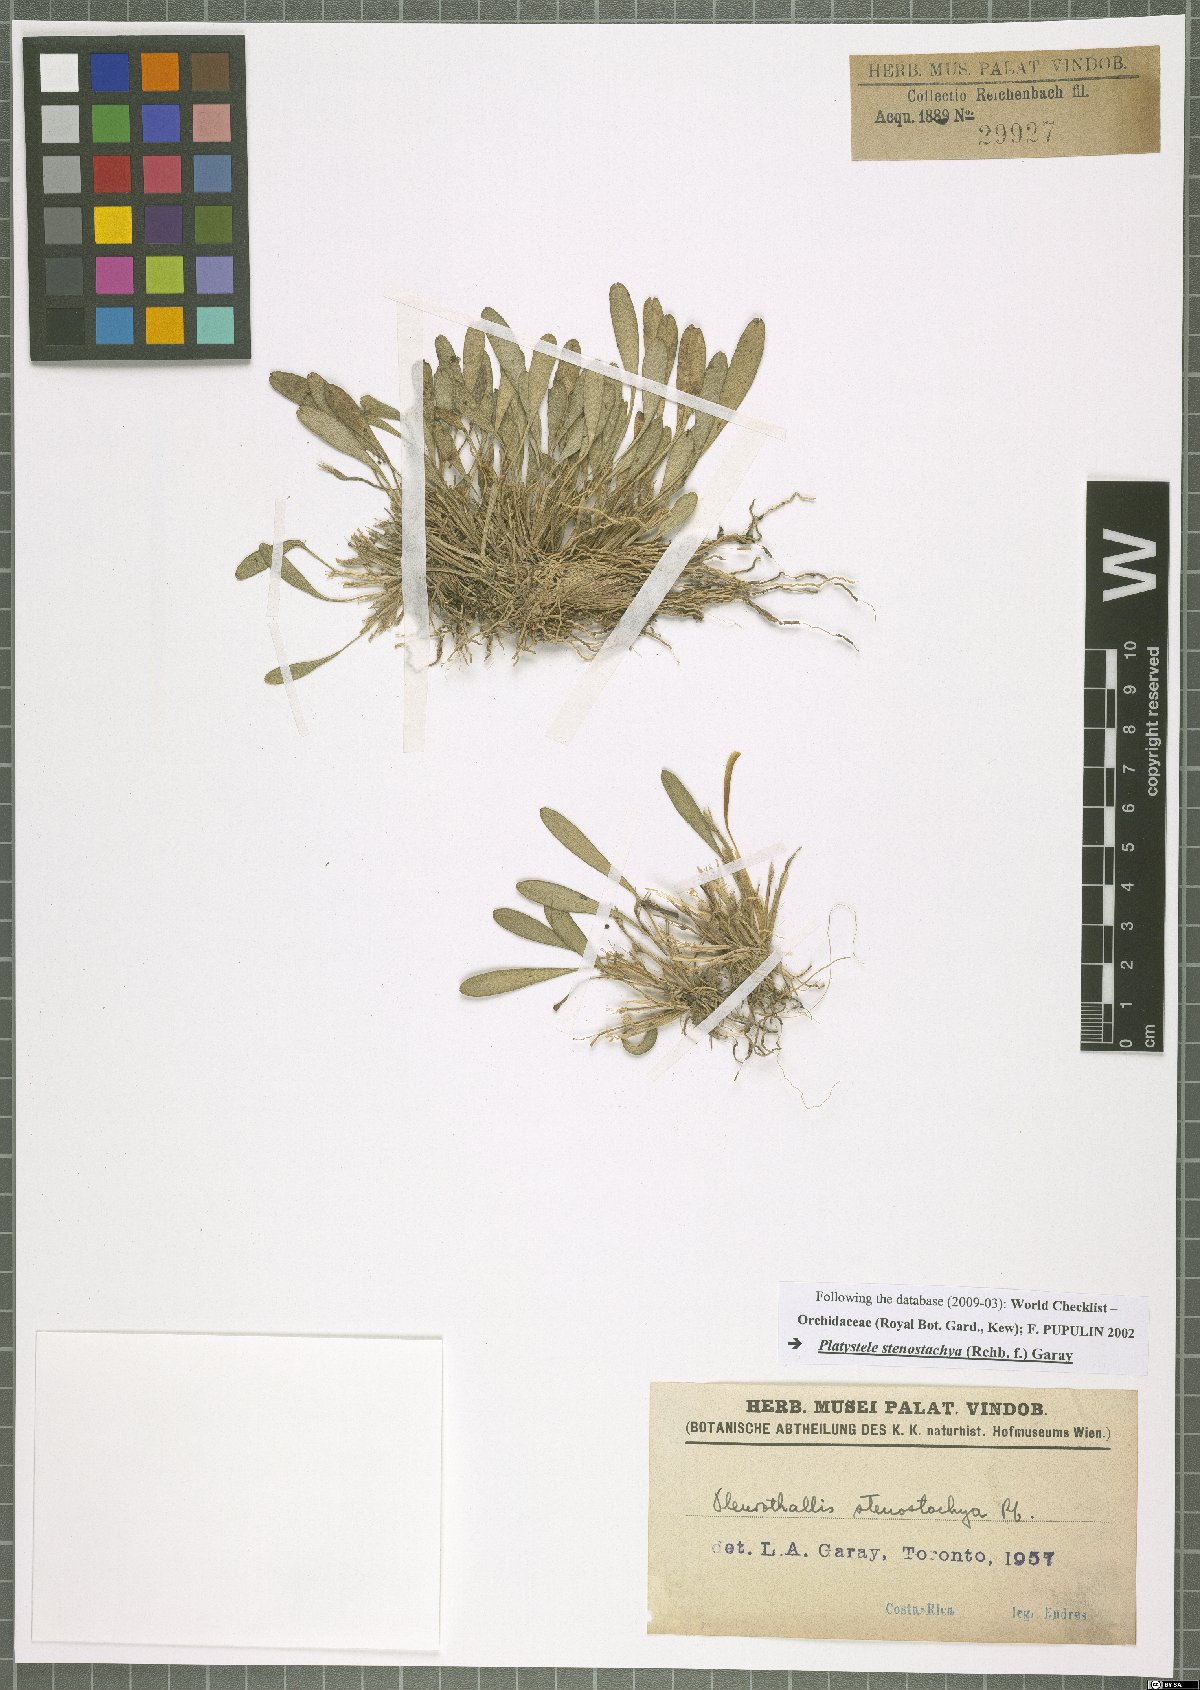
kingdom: Plantae
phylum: Tracheophyta
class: Liliopsida
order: Asparagales
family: Orchidaceae
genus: Platystele
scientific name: Platystele stenostachya
